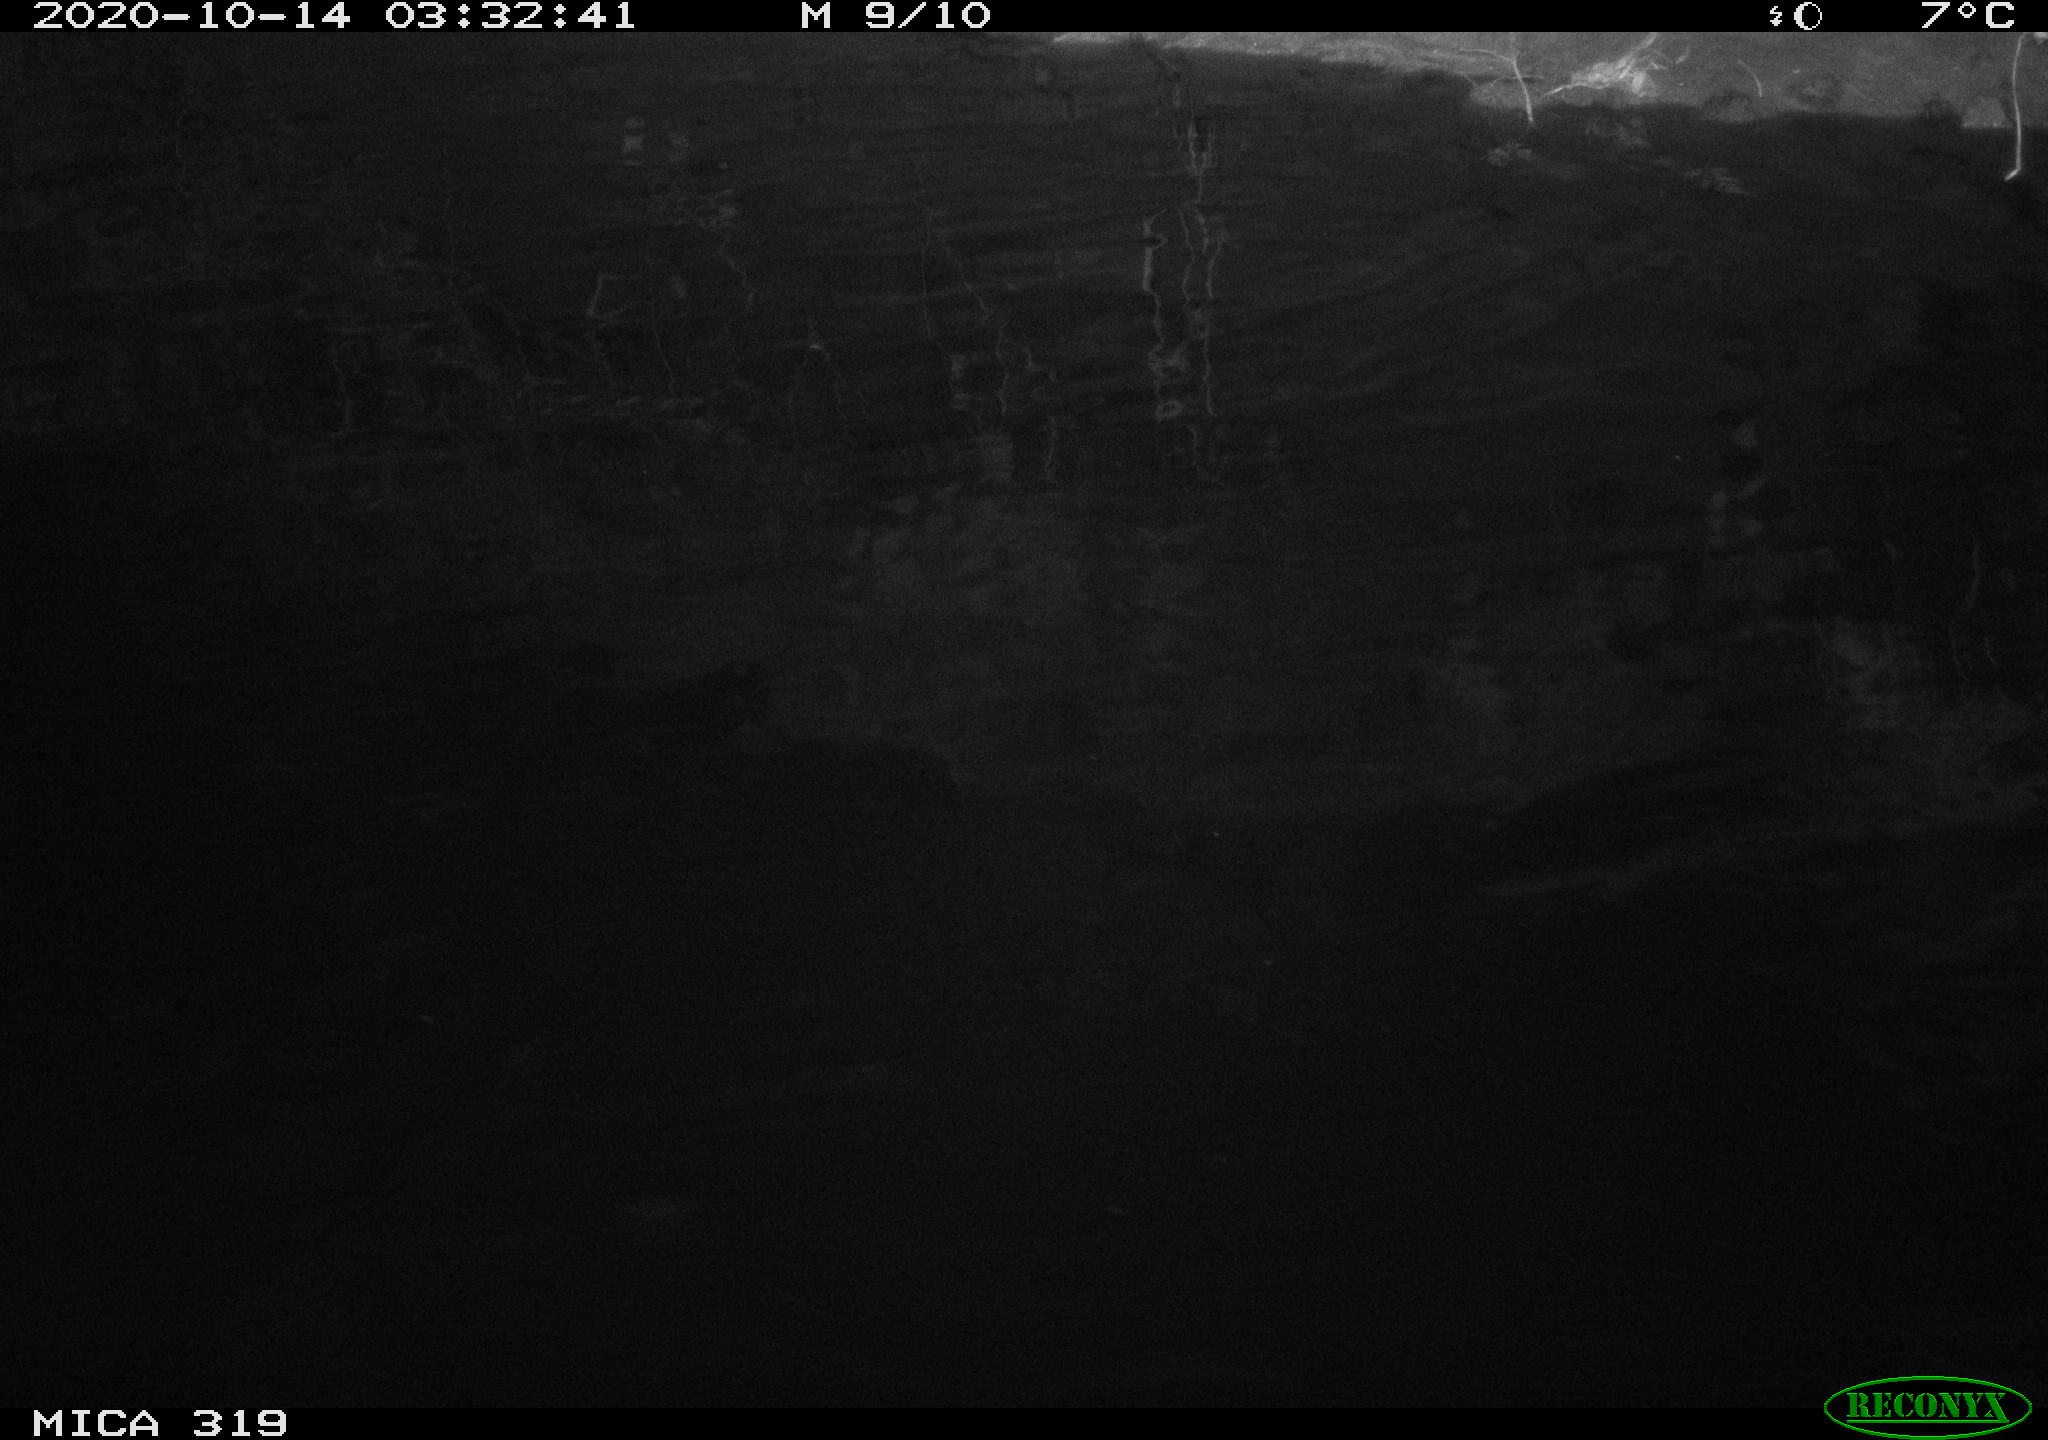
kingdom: Animalia
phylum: Chordata
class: Aves
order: Anseriformes
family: Anatidae
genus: Anas
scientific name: Anas platyrhynchos
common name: Mallard
